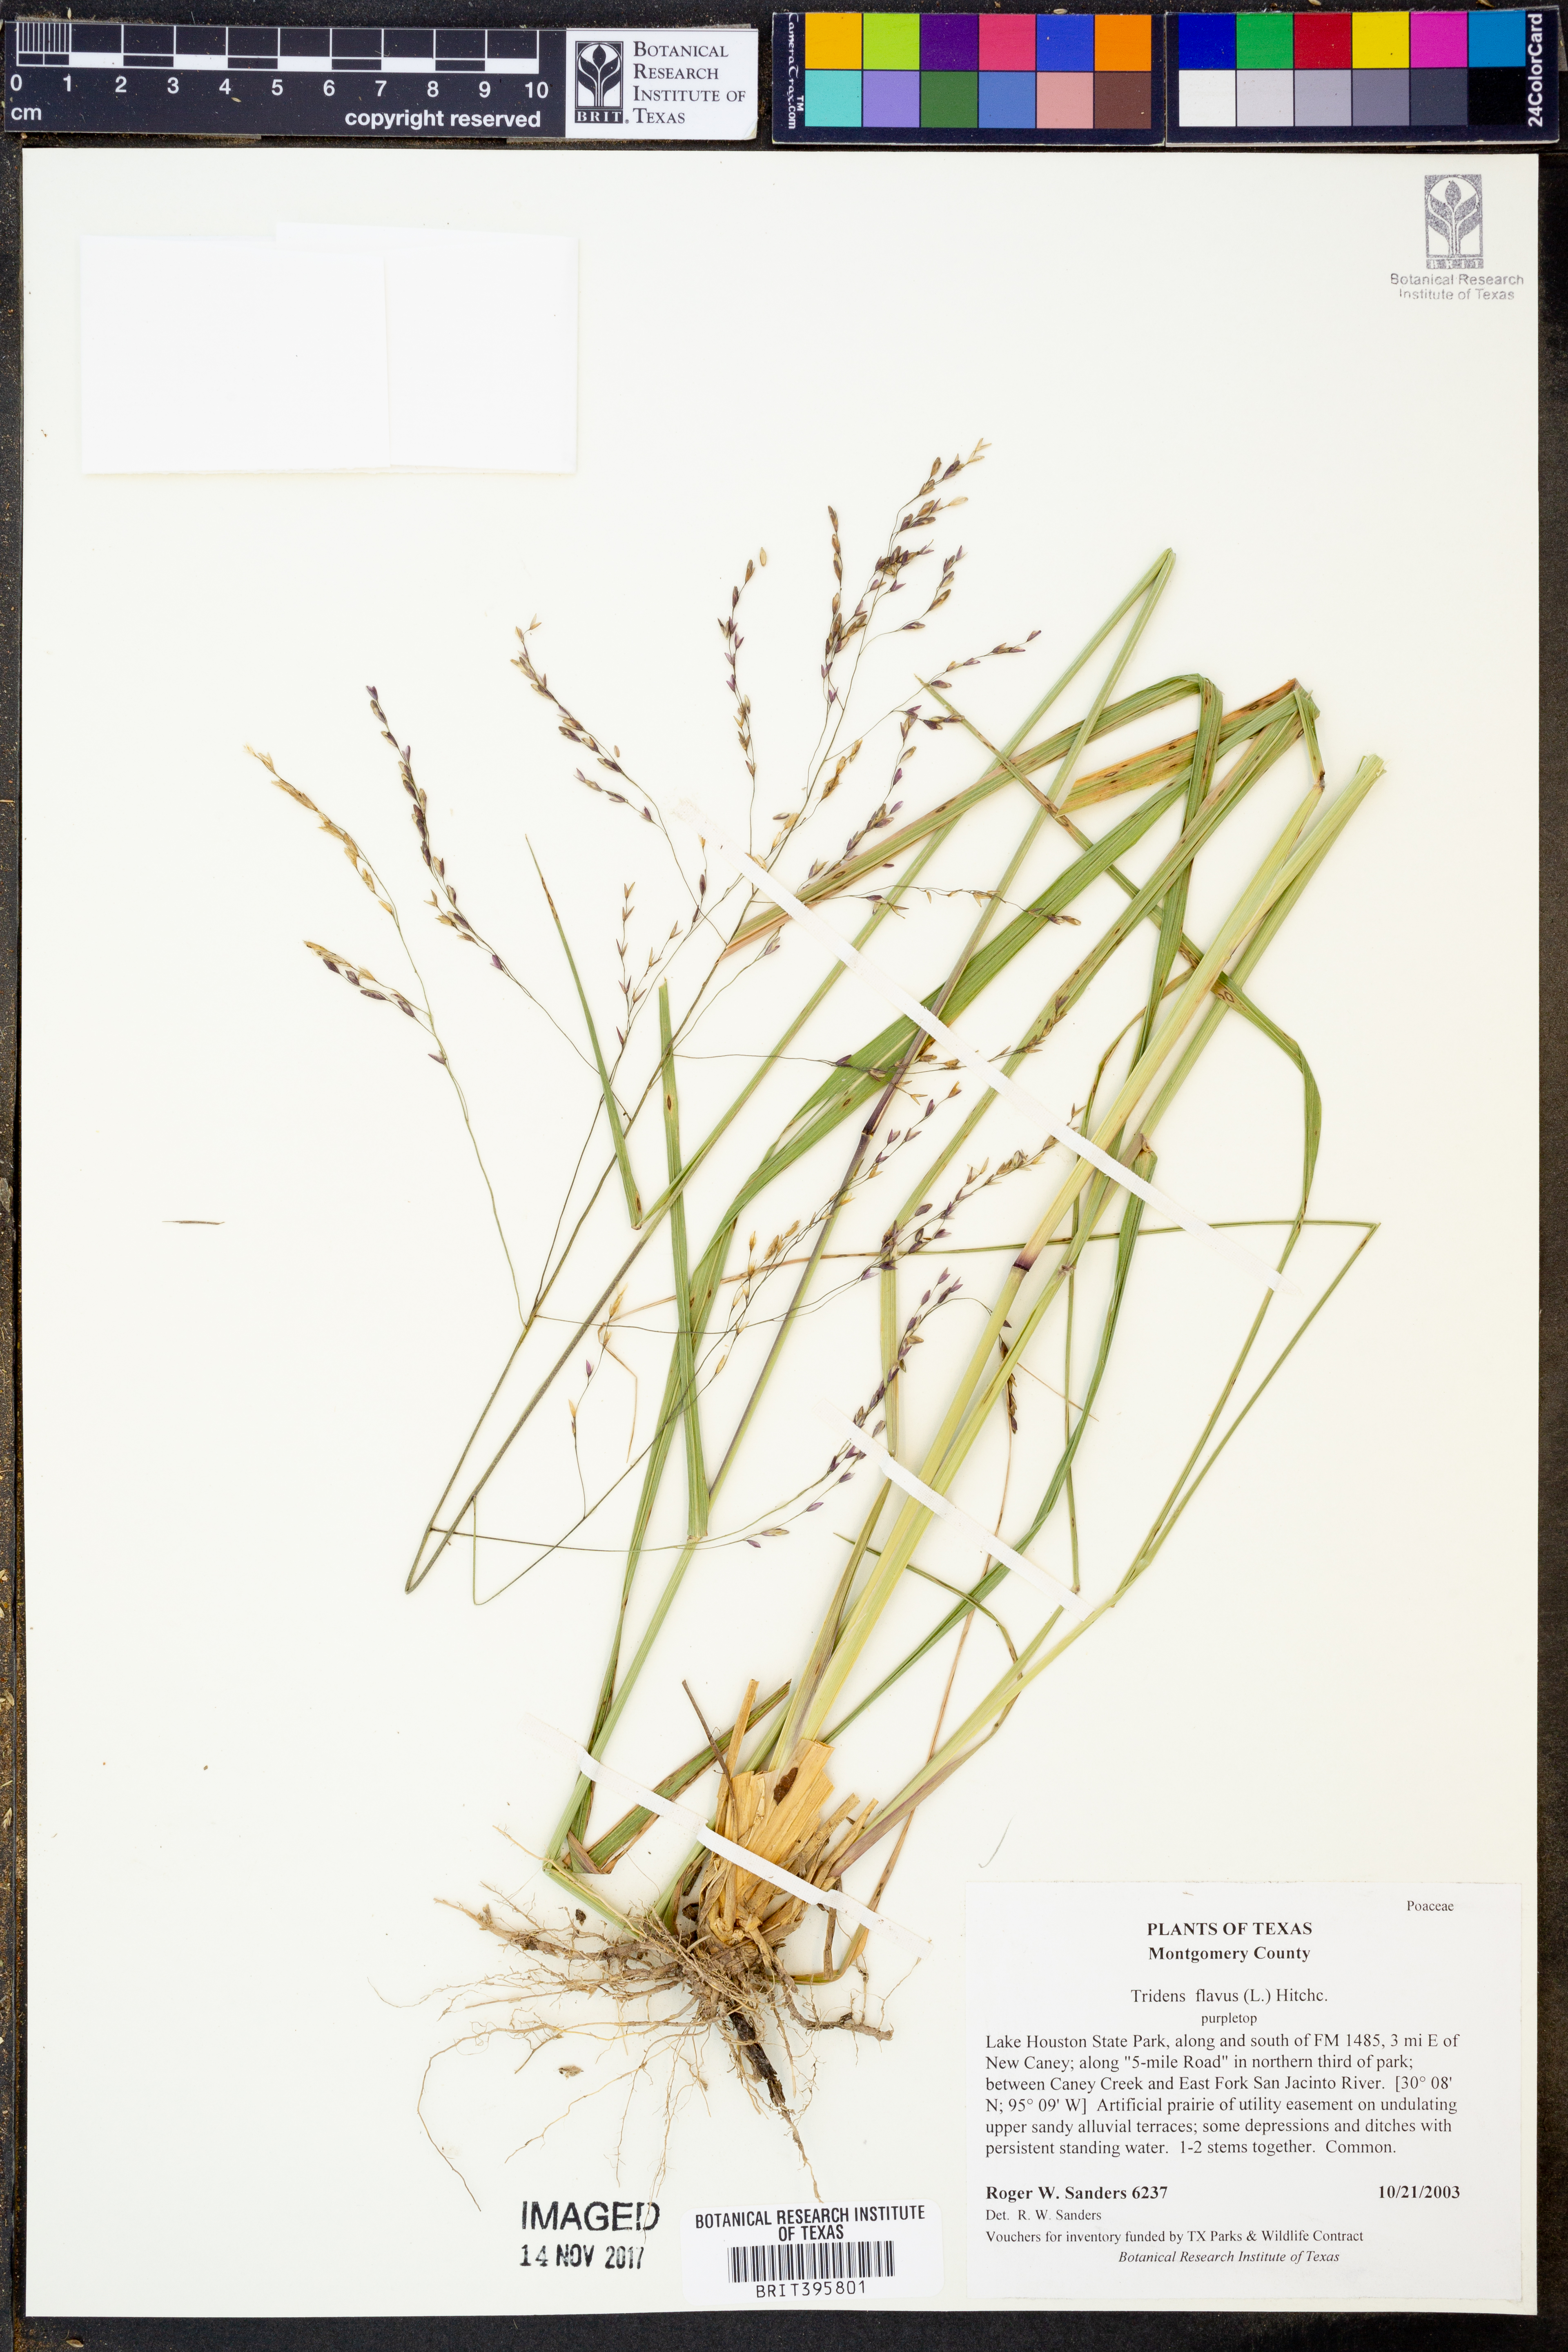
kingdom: Plantae
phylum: Tracheophyta
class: Liliopsida
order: Poales
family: Poaceae
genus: Tridens
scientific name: Tridens flavus
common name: Purpletop
